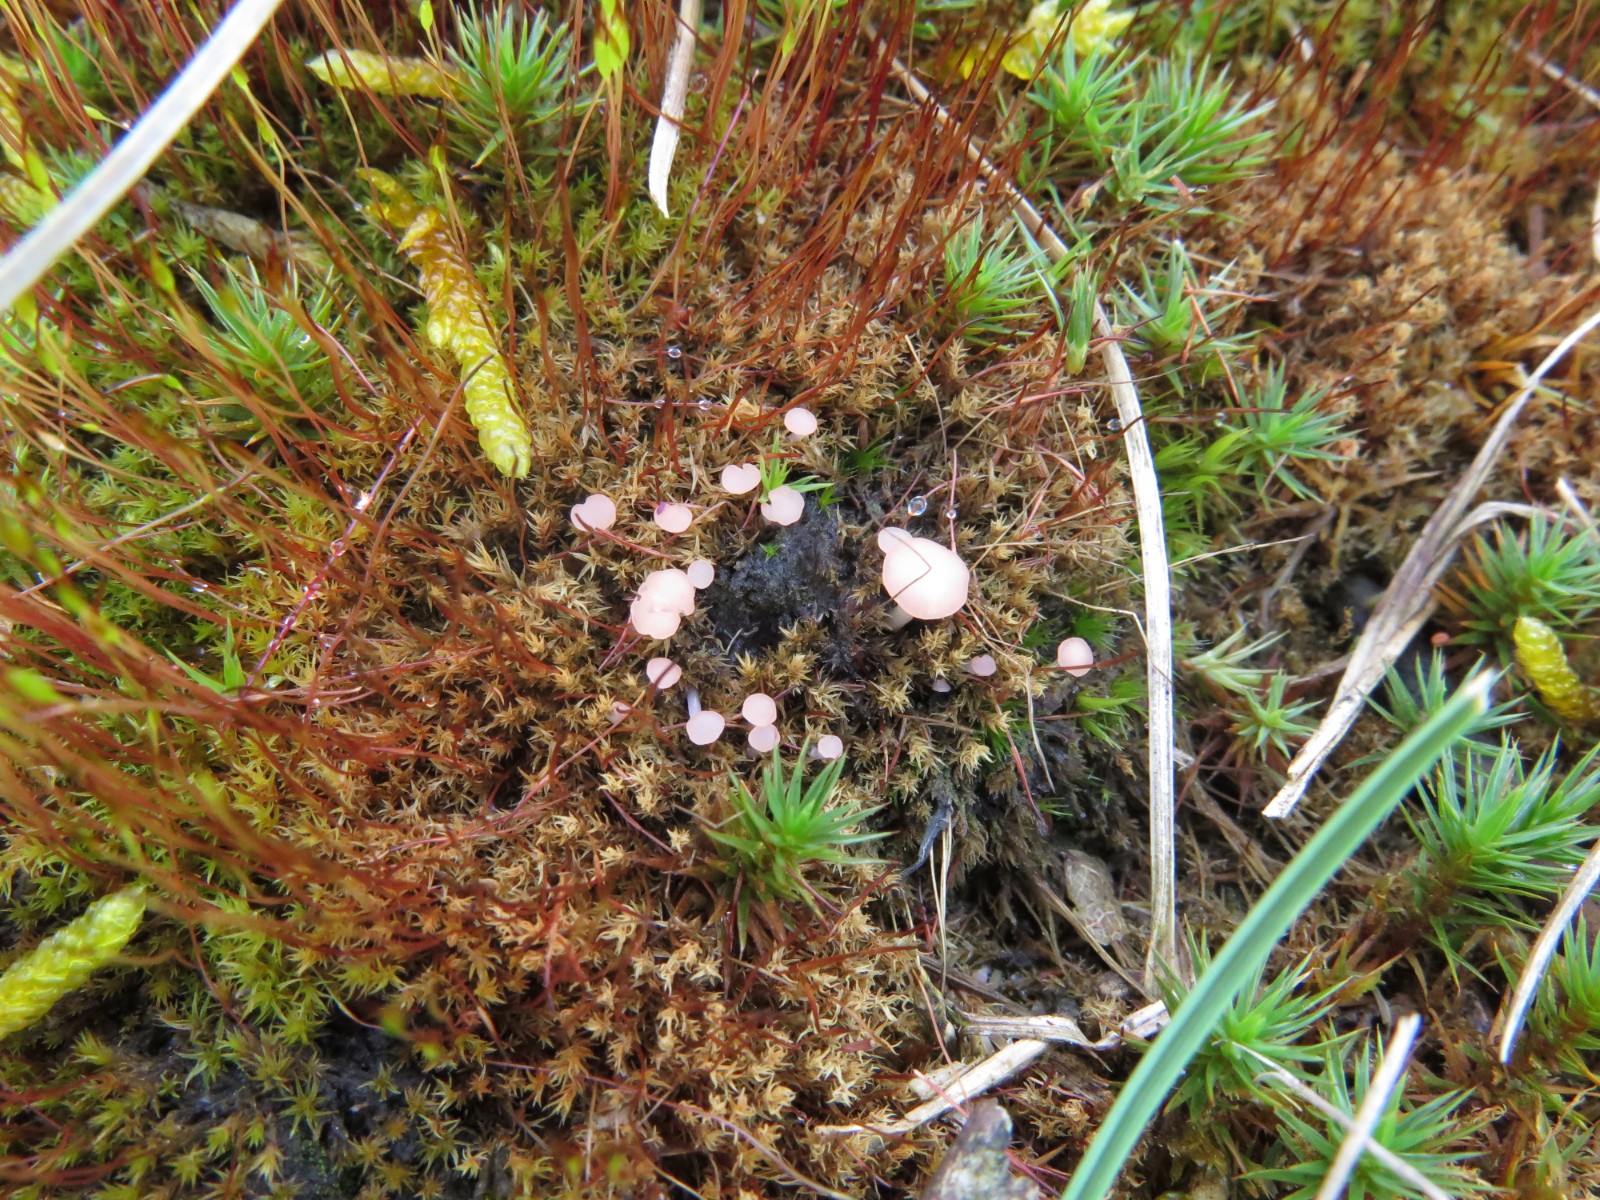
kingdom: Fungi
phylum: Ascomycota
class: Leotiomycetes
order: Helotiales
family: Hyaloscyphaceae
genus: Roseodiscus
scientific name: Roseodiscus formosus
